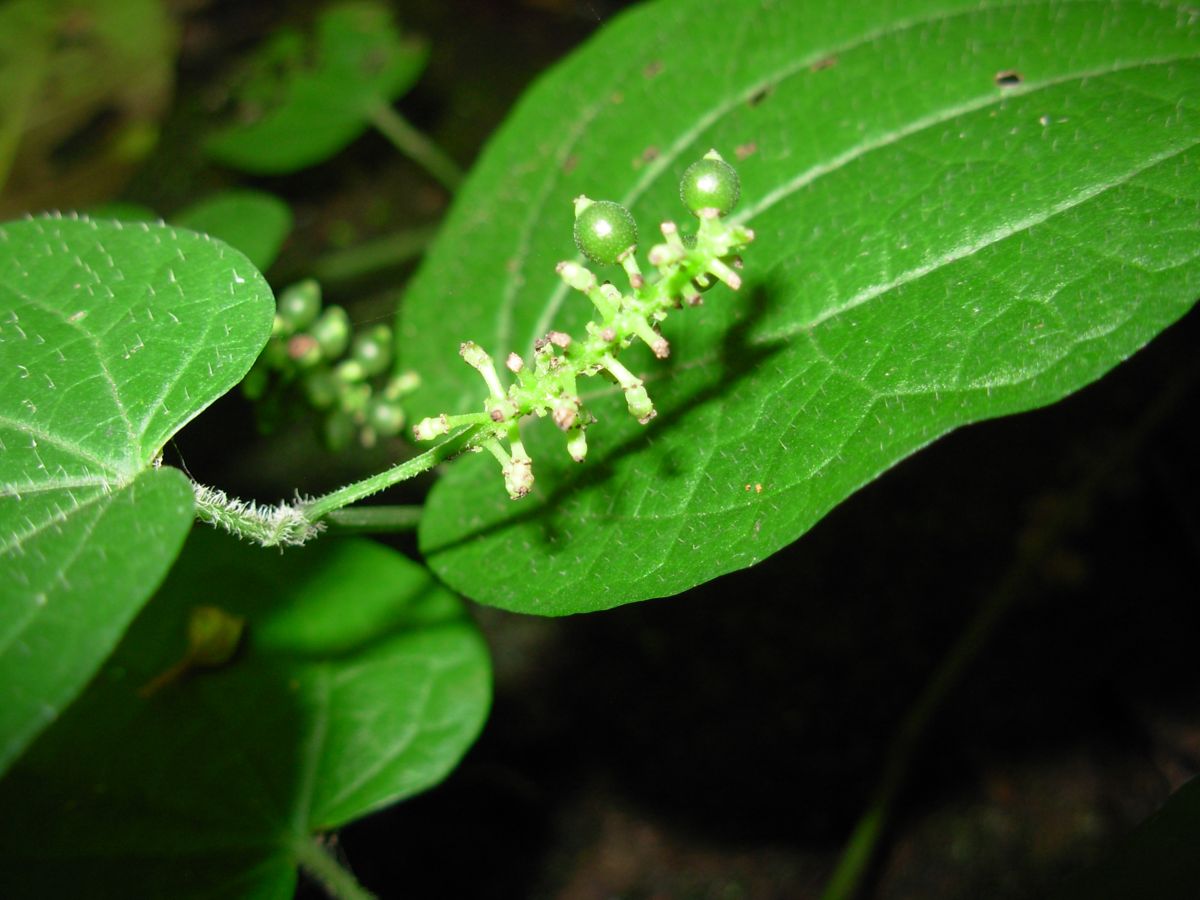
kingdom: Plantae
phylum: Tracheophyta
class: Magnoliopsida
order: Piperales
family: Piperaceae
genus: Piper
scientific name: Piper guazacapanense
